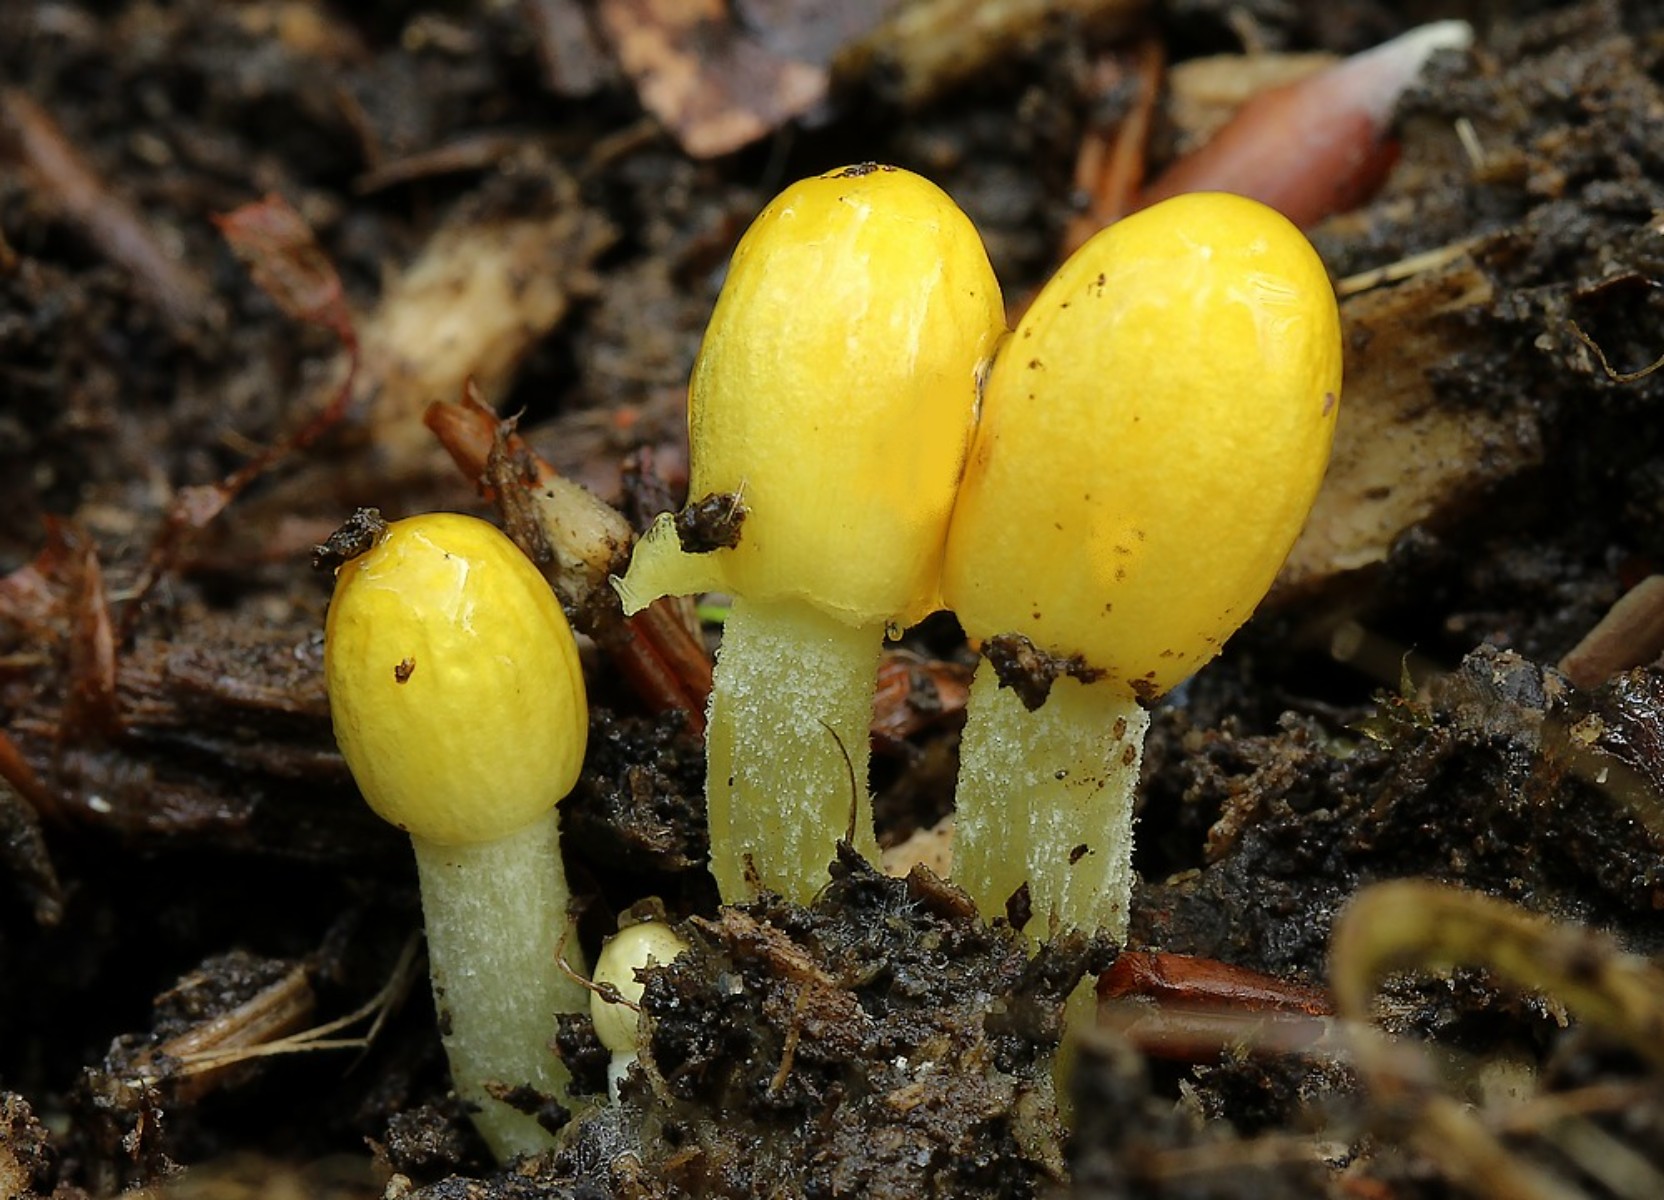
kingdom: Fungi
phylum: Basidiomycota
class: Agaricomycetes
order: Agaricales
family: Bolbitiaceae
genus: Bolbitius
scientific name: Bolbitius titubans
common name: almindelig gulhat
